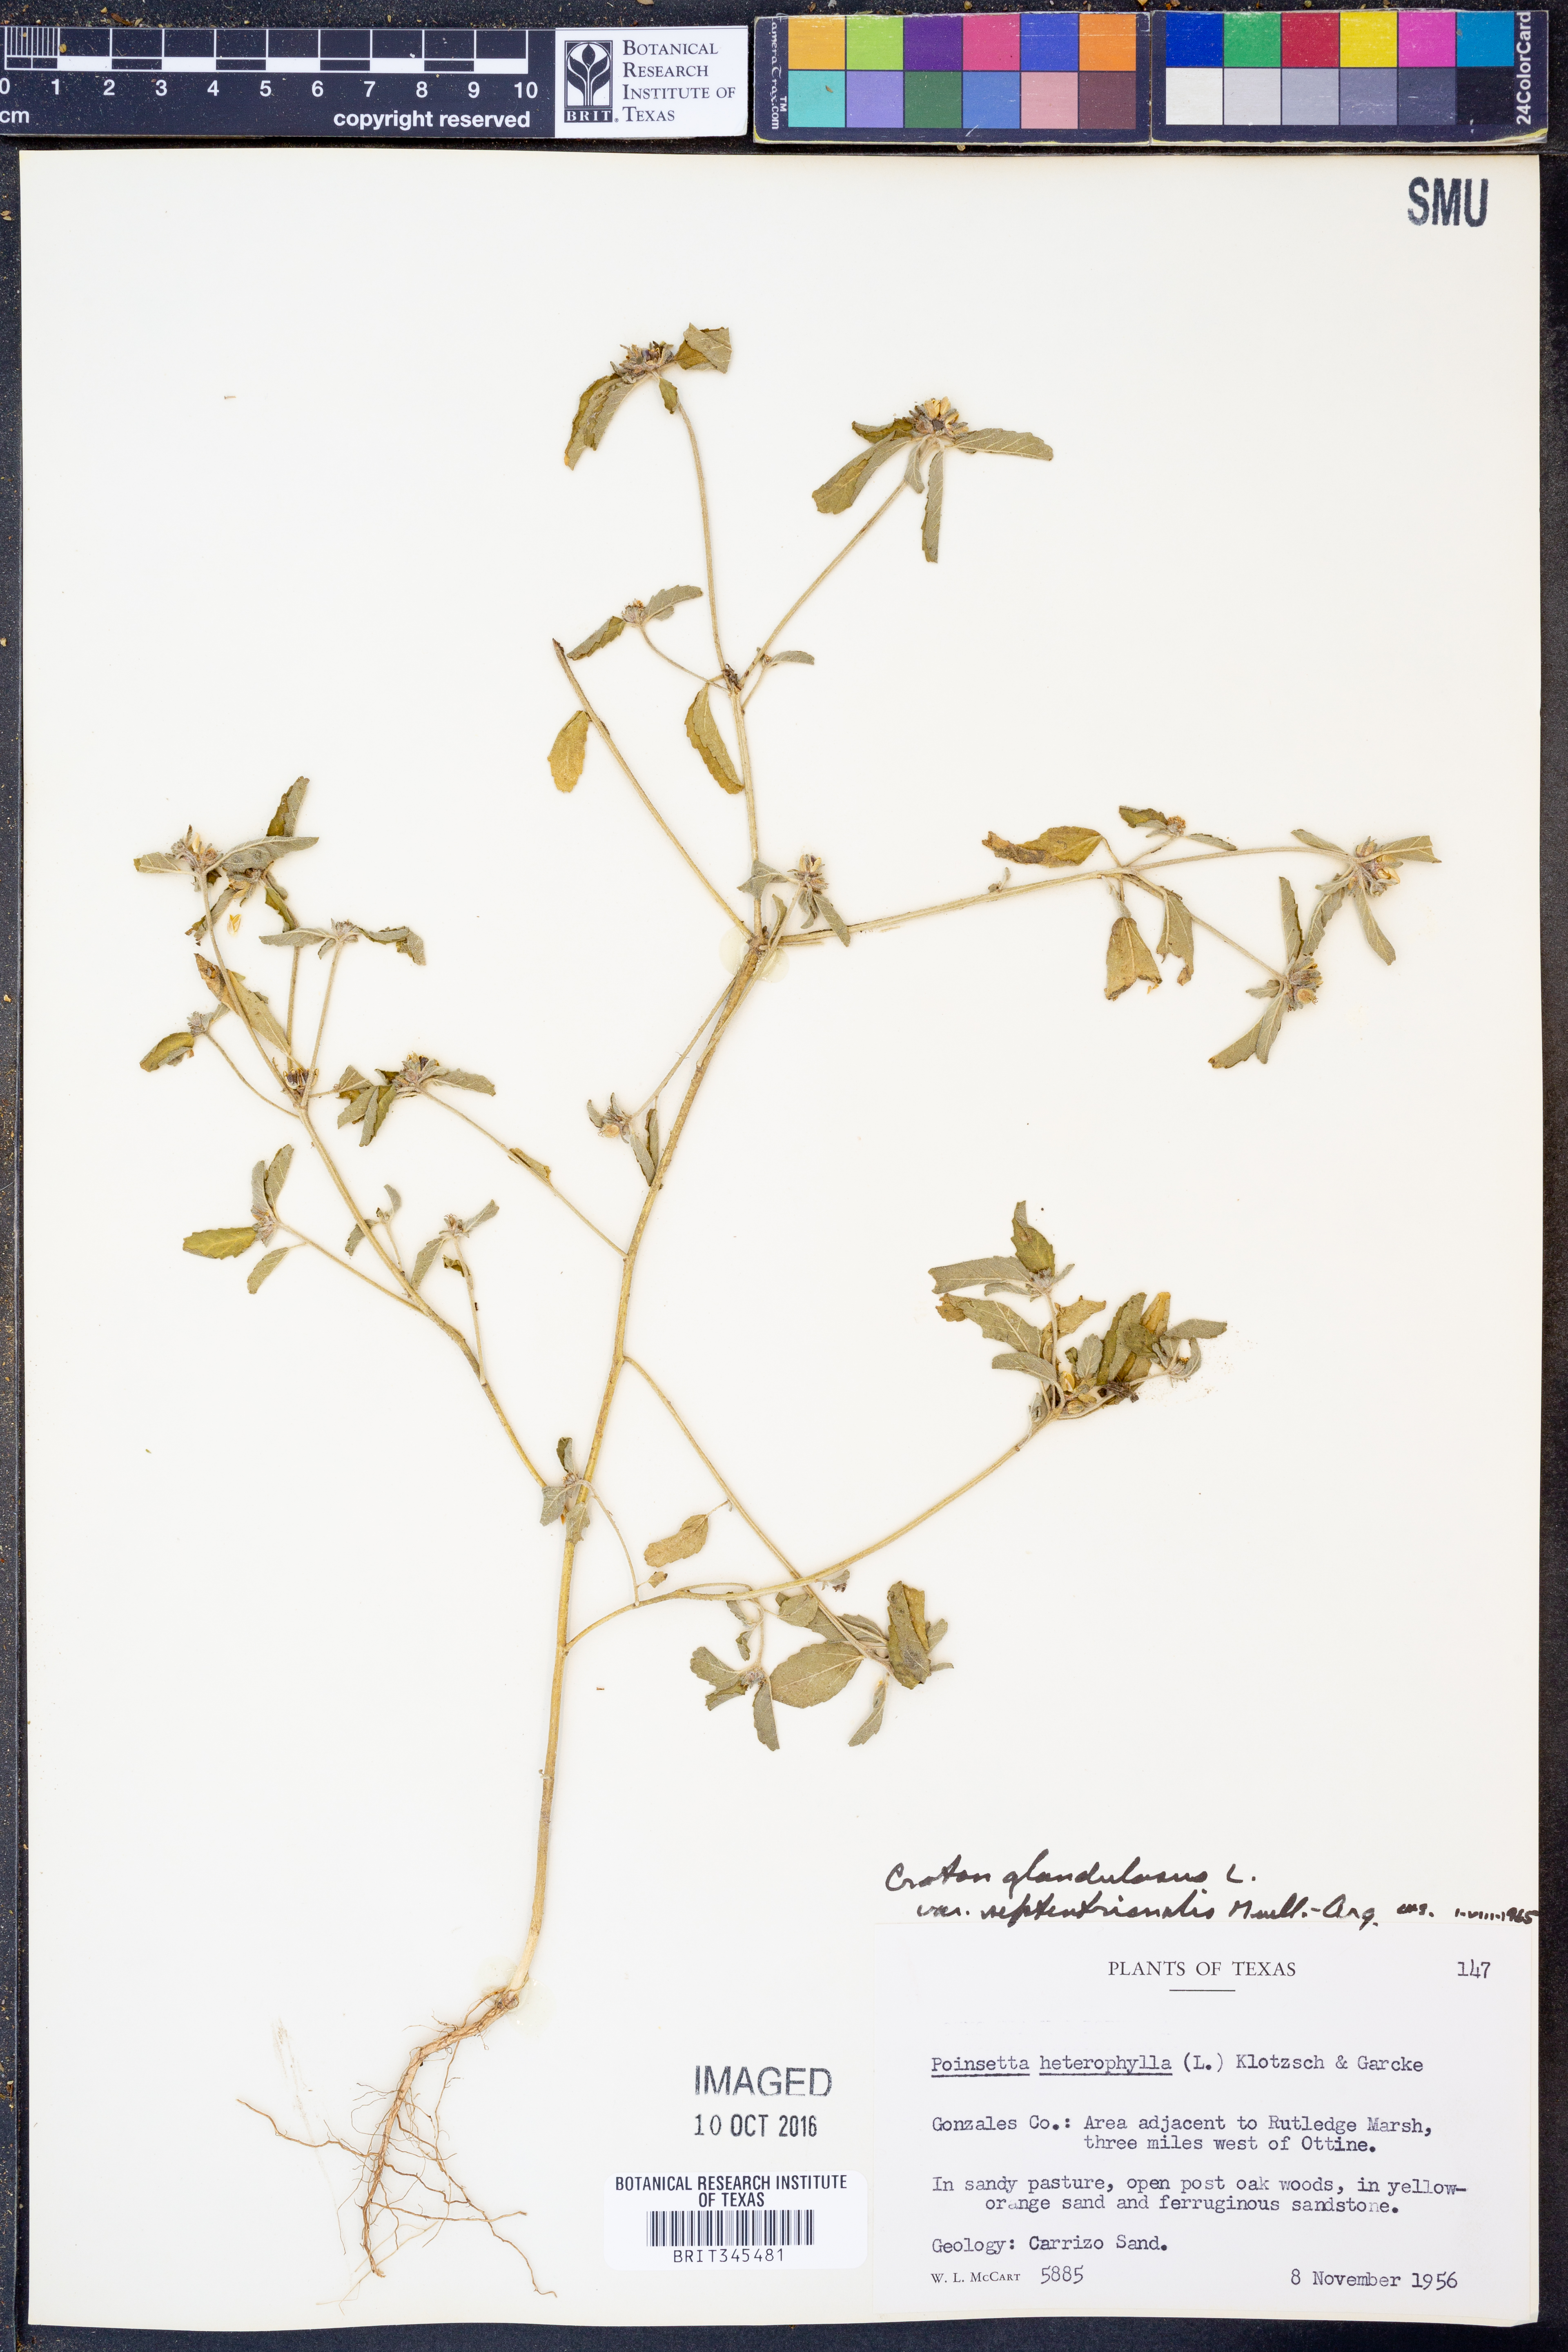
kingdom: Plantae
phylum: Tracheophyta
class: Magnoliopsida
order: Malpighiales
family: Euphorbiaceae
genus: Croton
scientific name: Croton glandulosus
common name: Tropic croton
